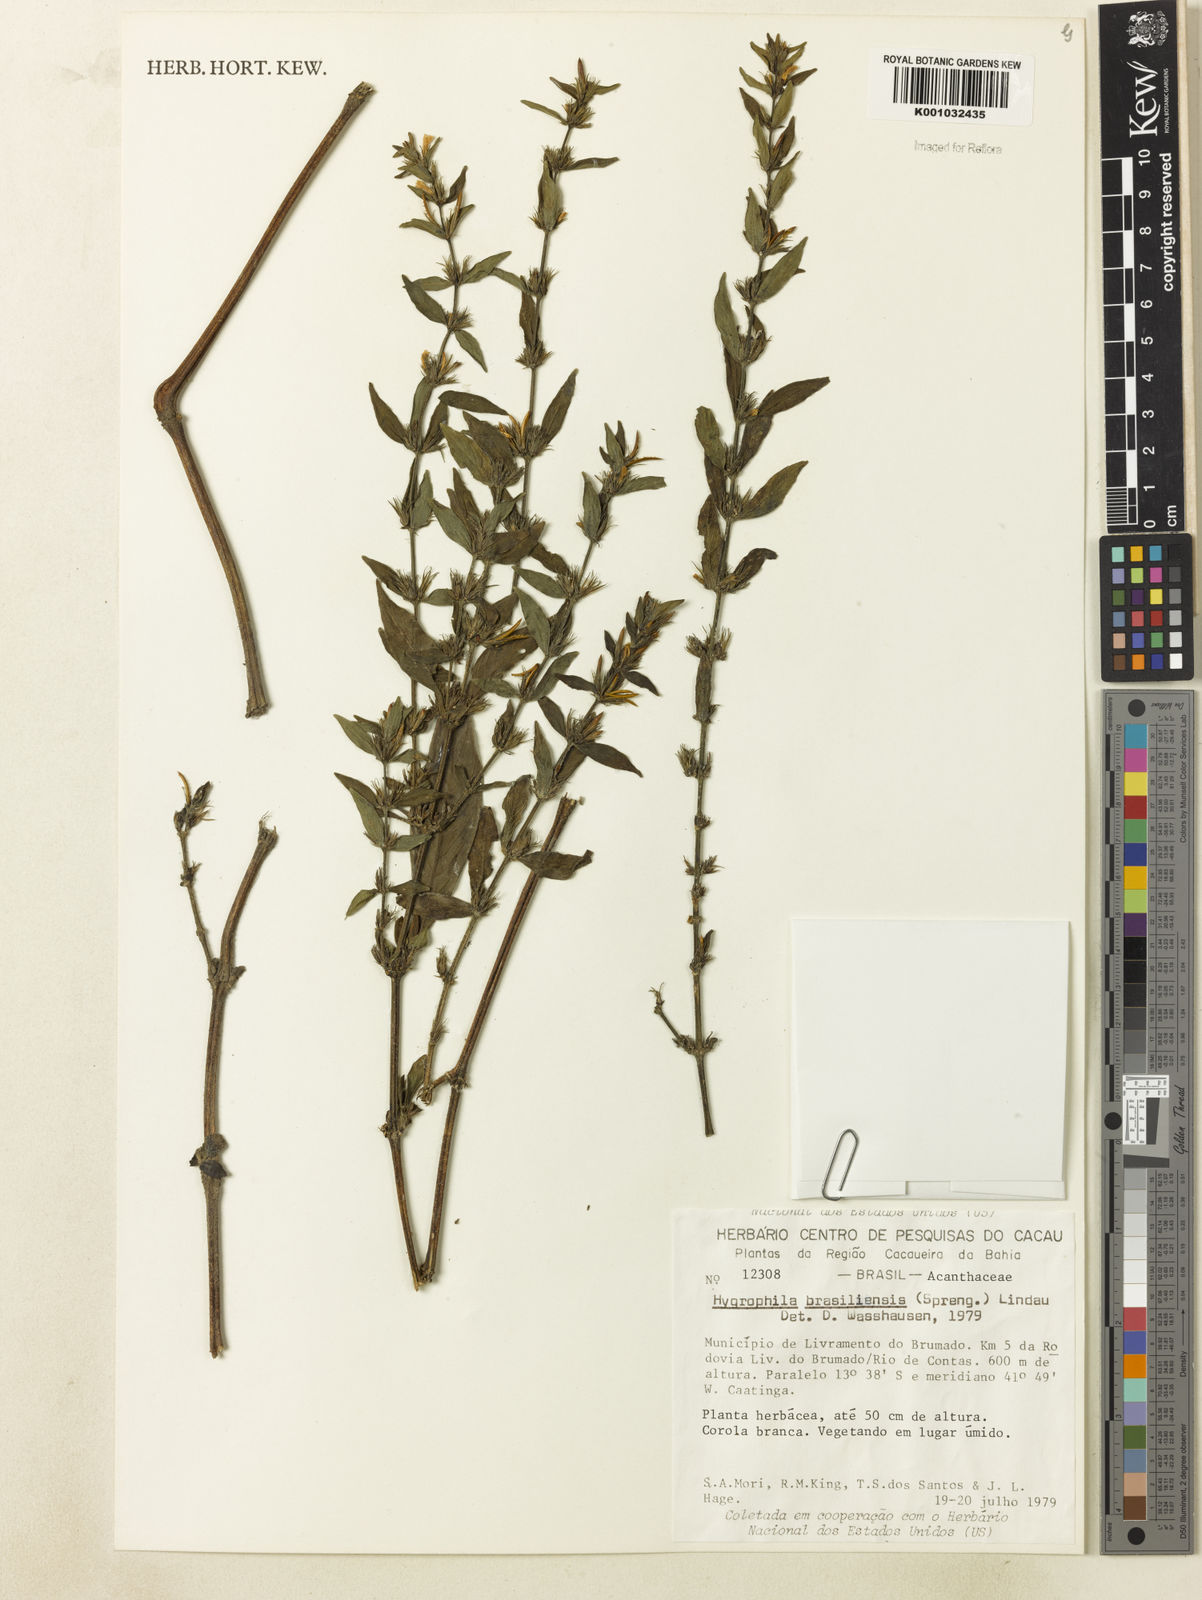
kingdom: Plantae
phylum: Tracheophyta
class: Magnoliopsida
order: Lamiales
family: Acanthaceae
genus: Hygrophila
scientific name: Hygrophila costata
